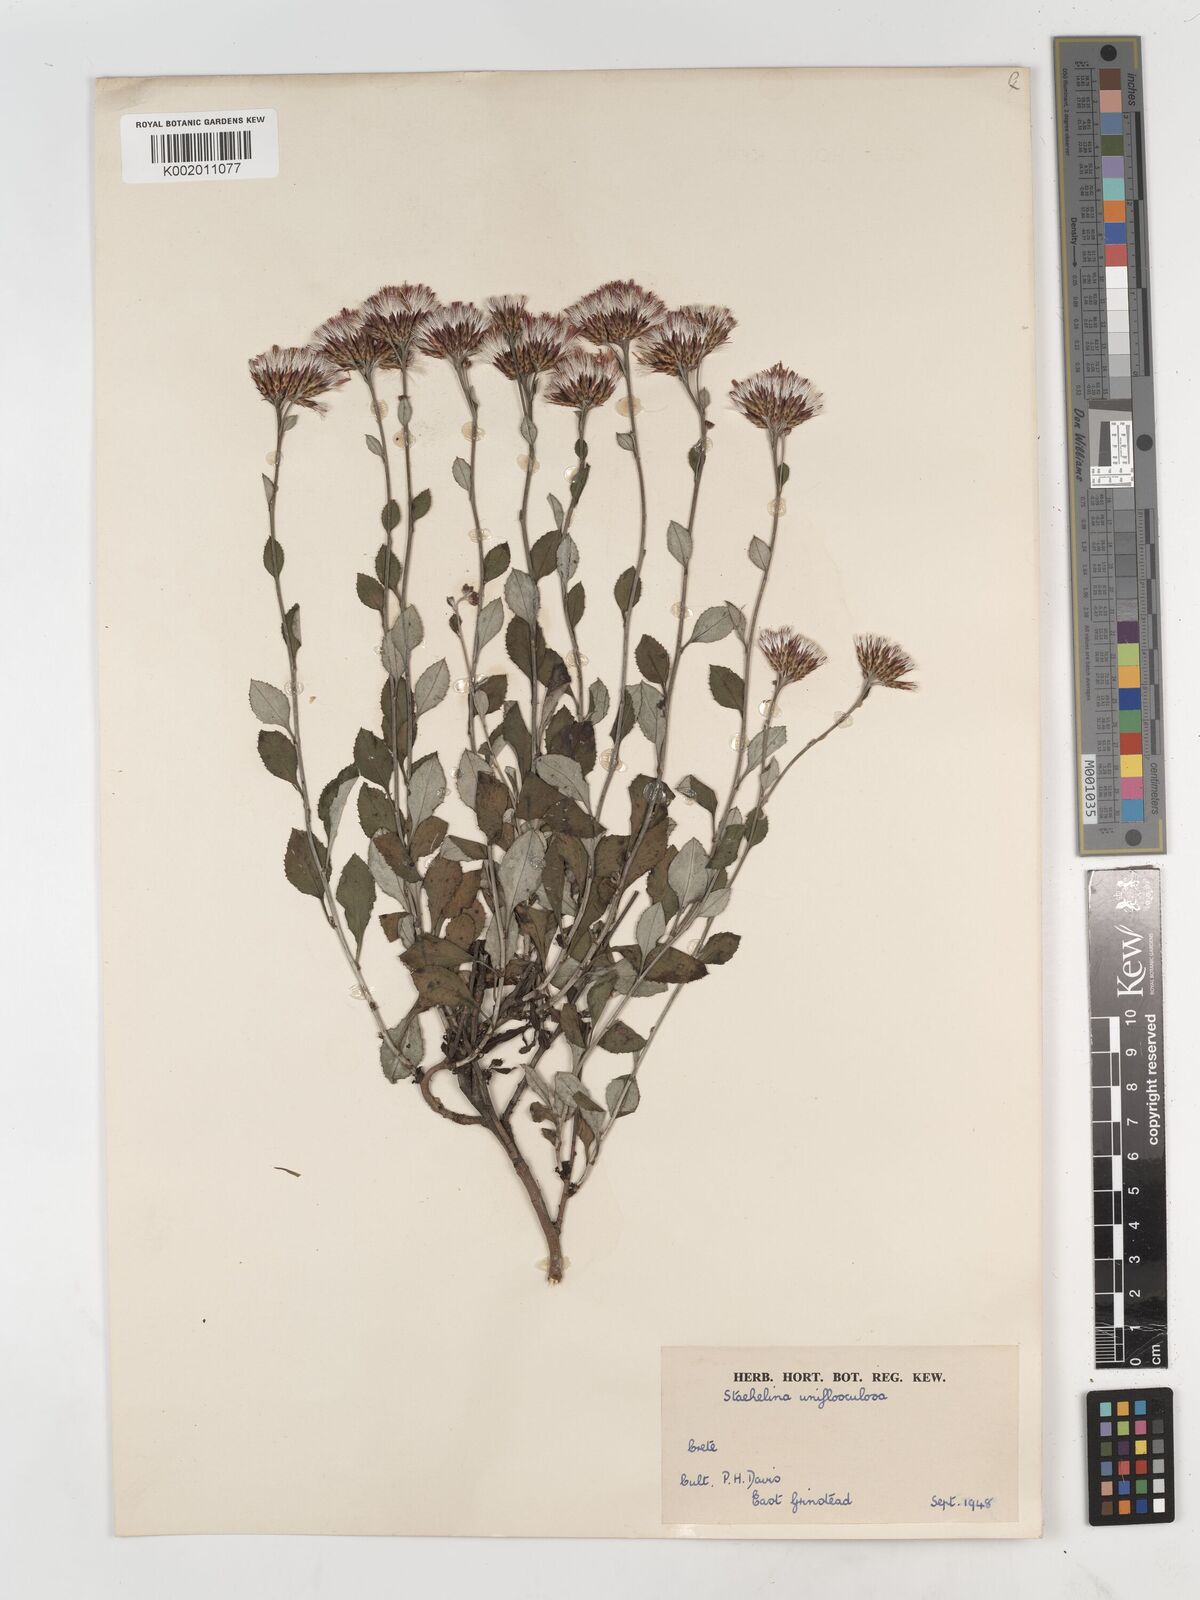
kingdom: Plantae
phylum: Tracheophyta
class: Magnoliopsida
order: Asterales
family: Asteraceae
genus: Staehelina
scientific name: Staehelina
